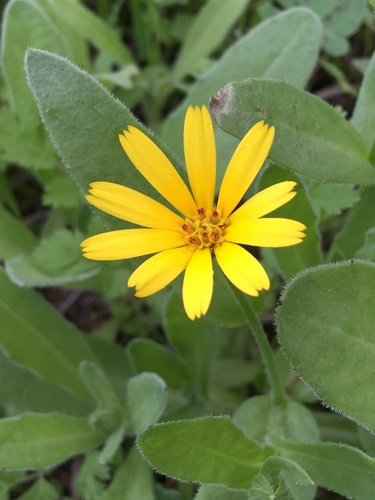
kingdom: Plantae
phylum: Tracheophyta
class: Magnoliopsida
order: Asterales
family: Asteraceae
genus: Calendula
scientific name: Calendula arvensis
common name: Field marigold
